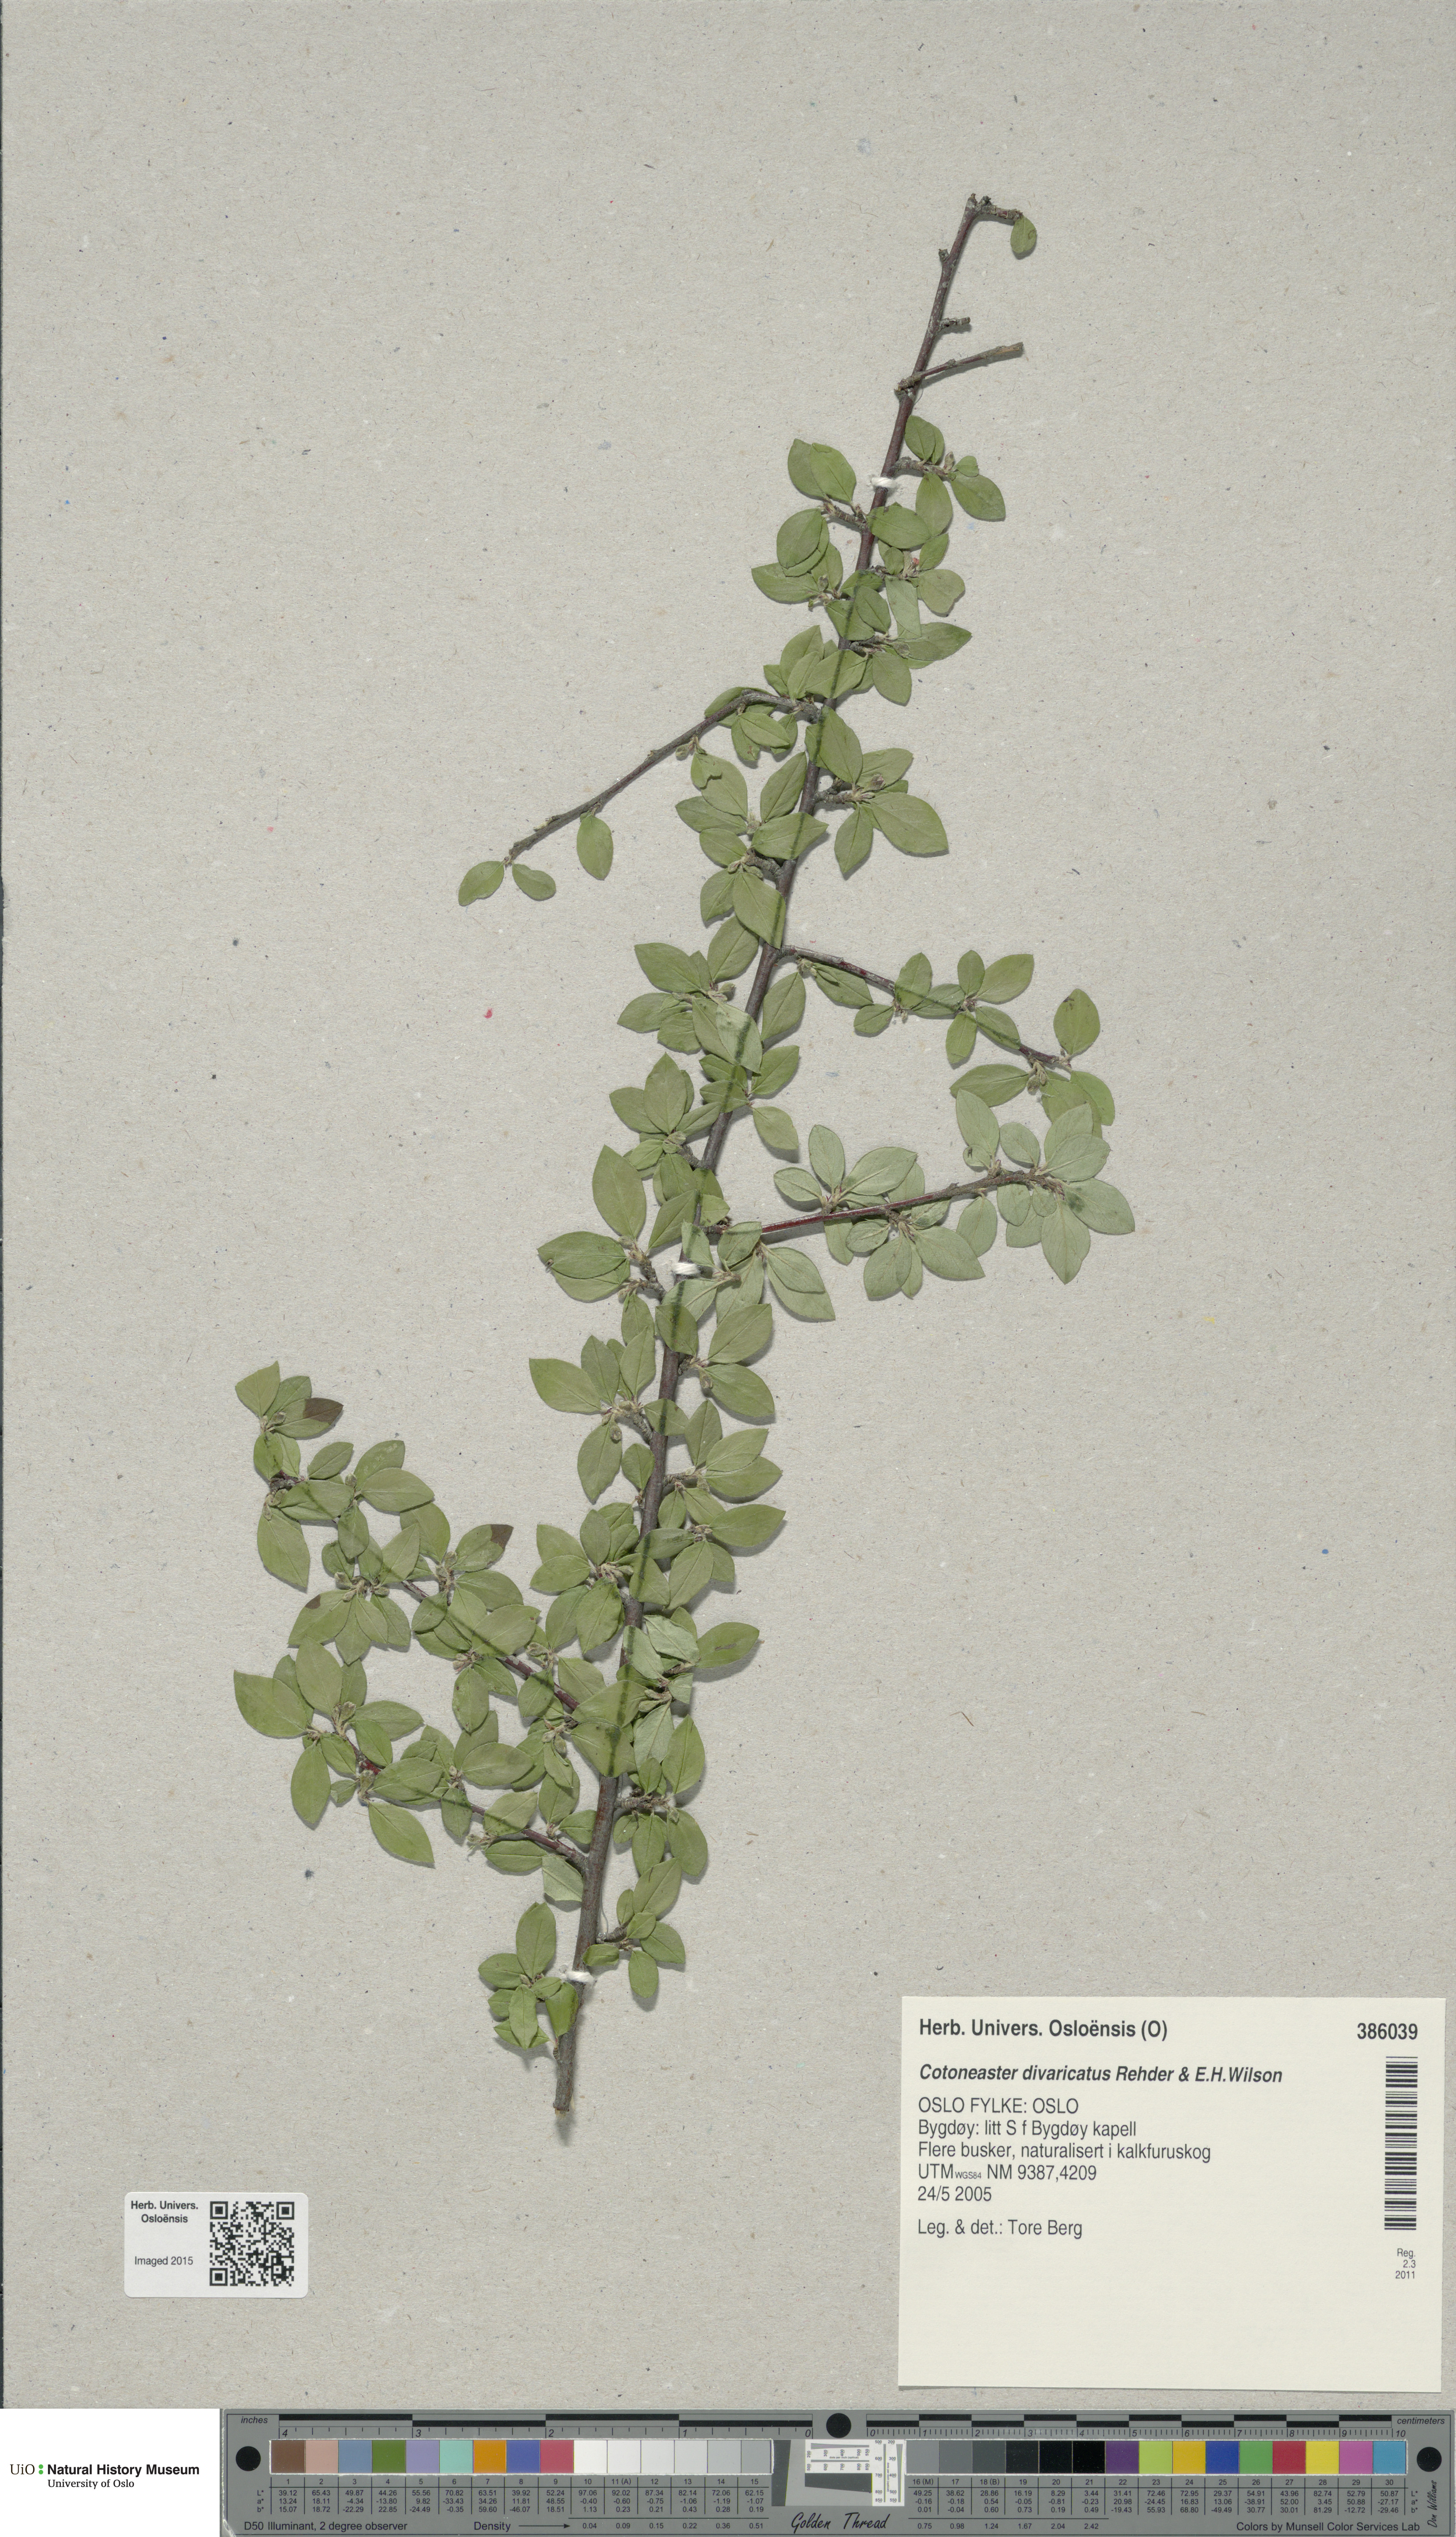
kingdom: Plantae
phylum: Tracheophyta
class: Magnoliopsida
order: Rosales
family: Rosaceae
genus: Cotoneaster
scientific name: Cotoneaster divaricatus
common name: Spreading cotoneaster
